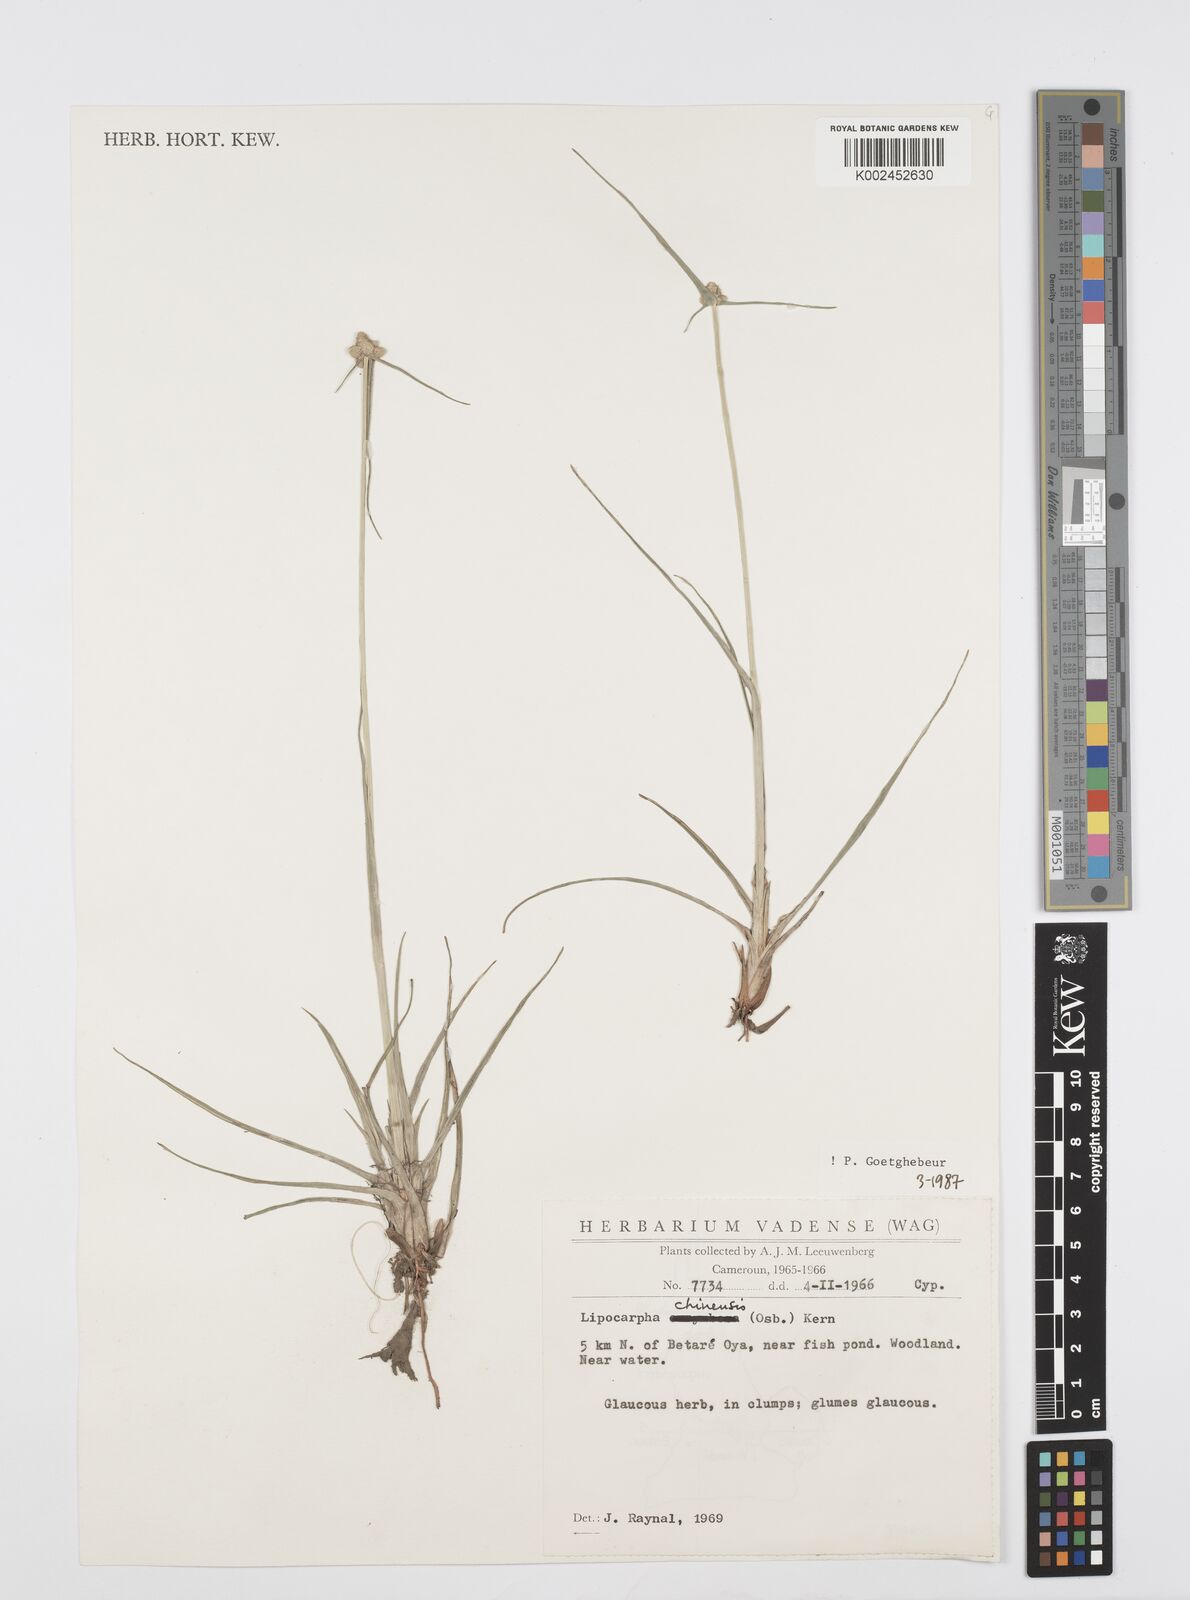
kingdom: Plantae
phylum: Tracheophyta
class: Liliopsida
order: Poales
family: Cyperaceae
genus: Cyperus
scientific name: Cyperus albescens
